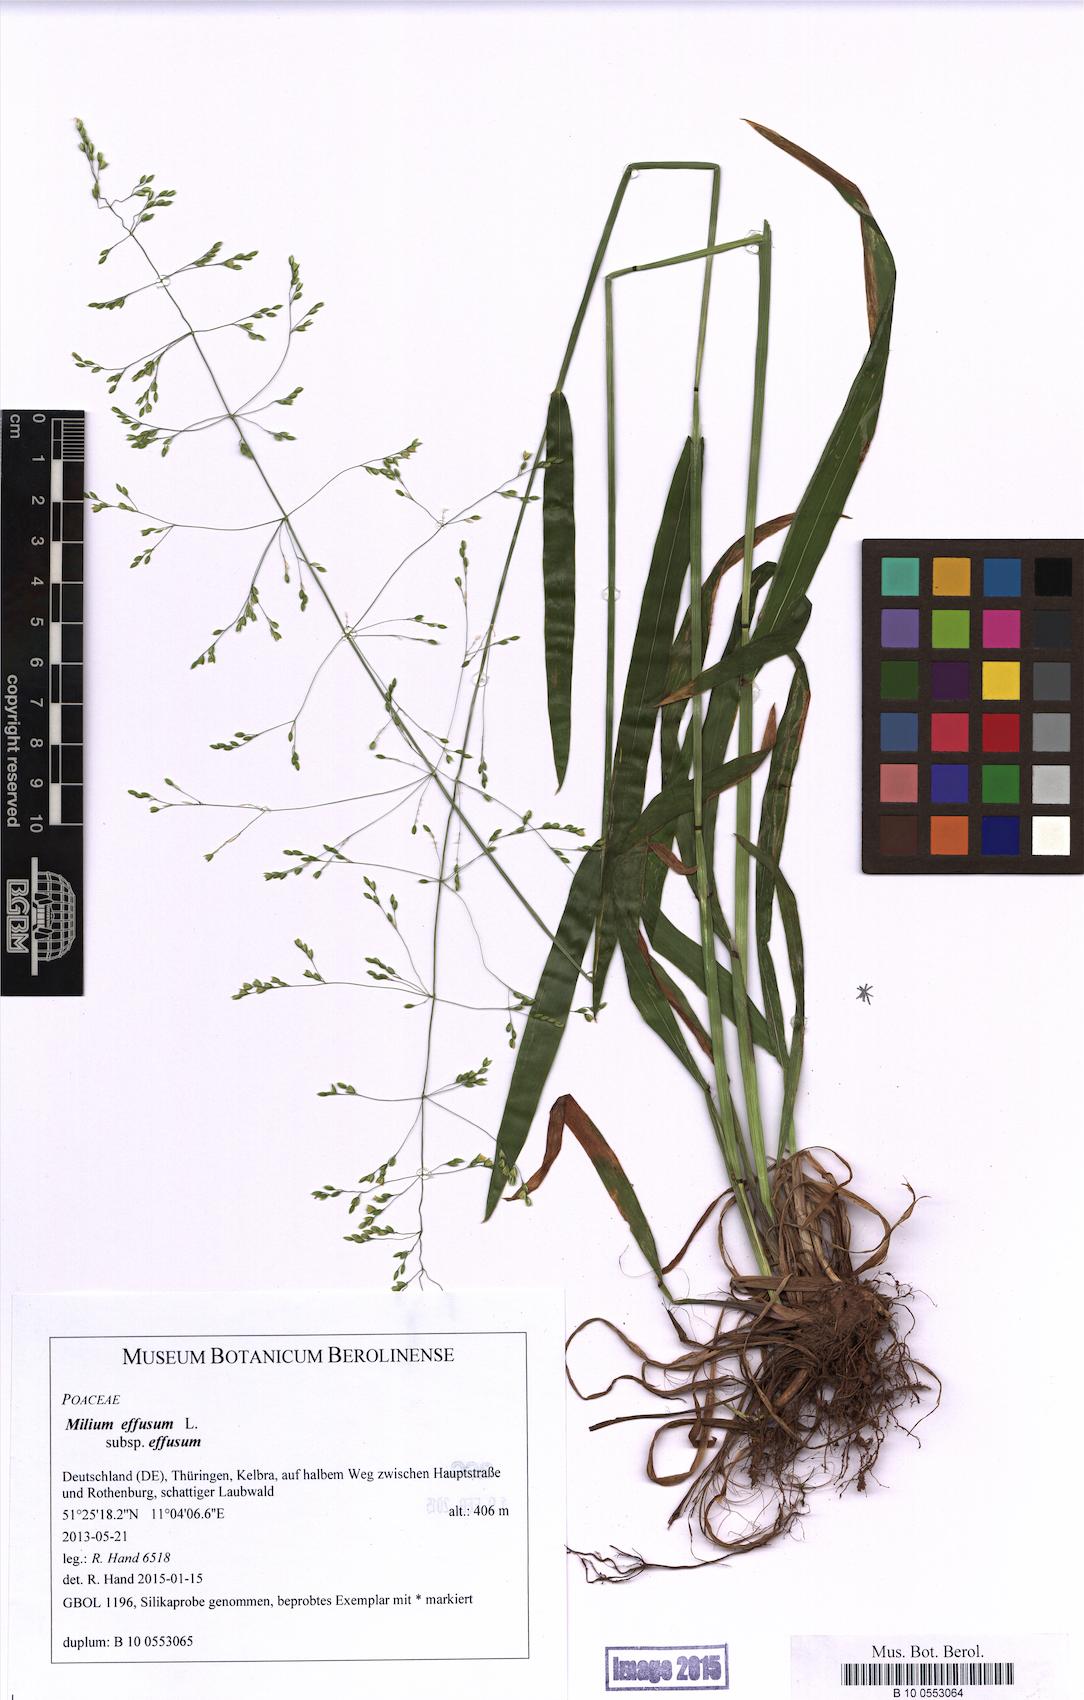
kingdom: Plantae
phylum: Tracheophyta
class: Liliopsida
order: Poales
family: Poaceae
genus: Milium
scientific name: Milium effusum
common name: Wood millet
